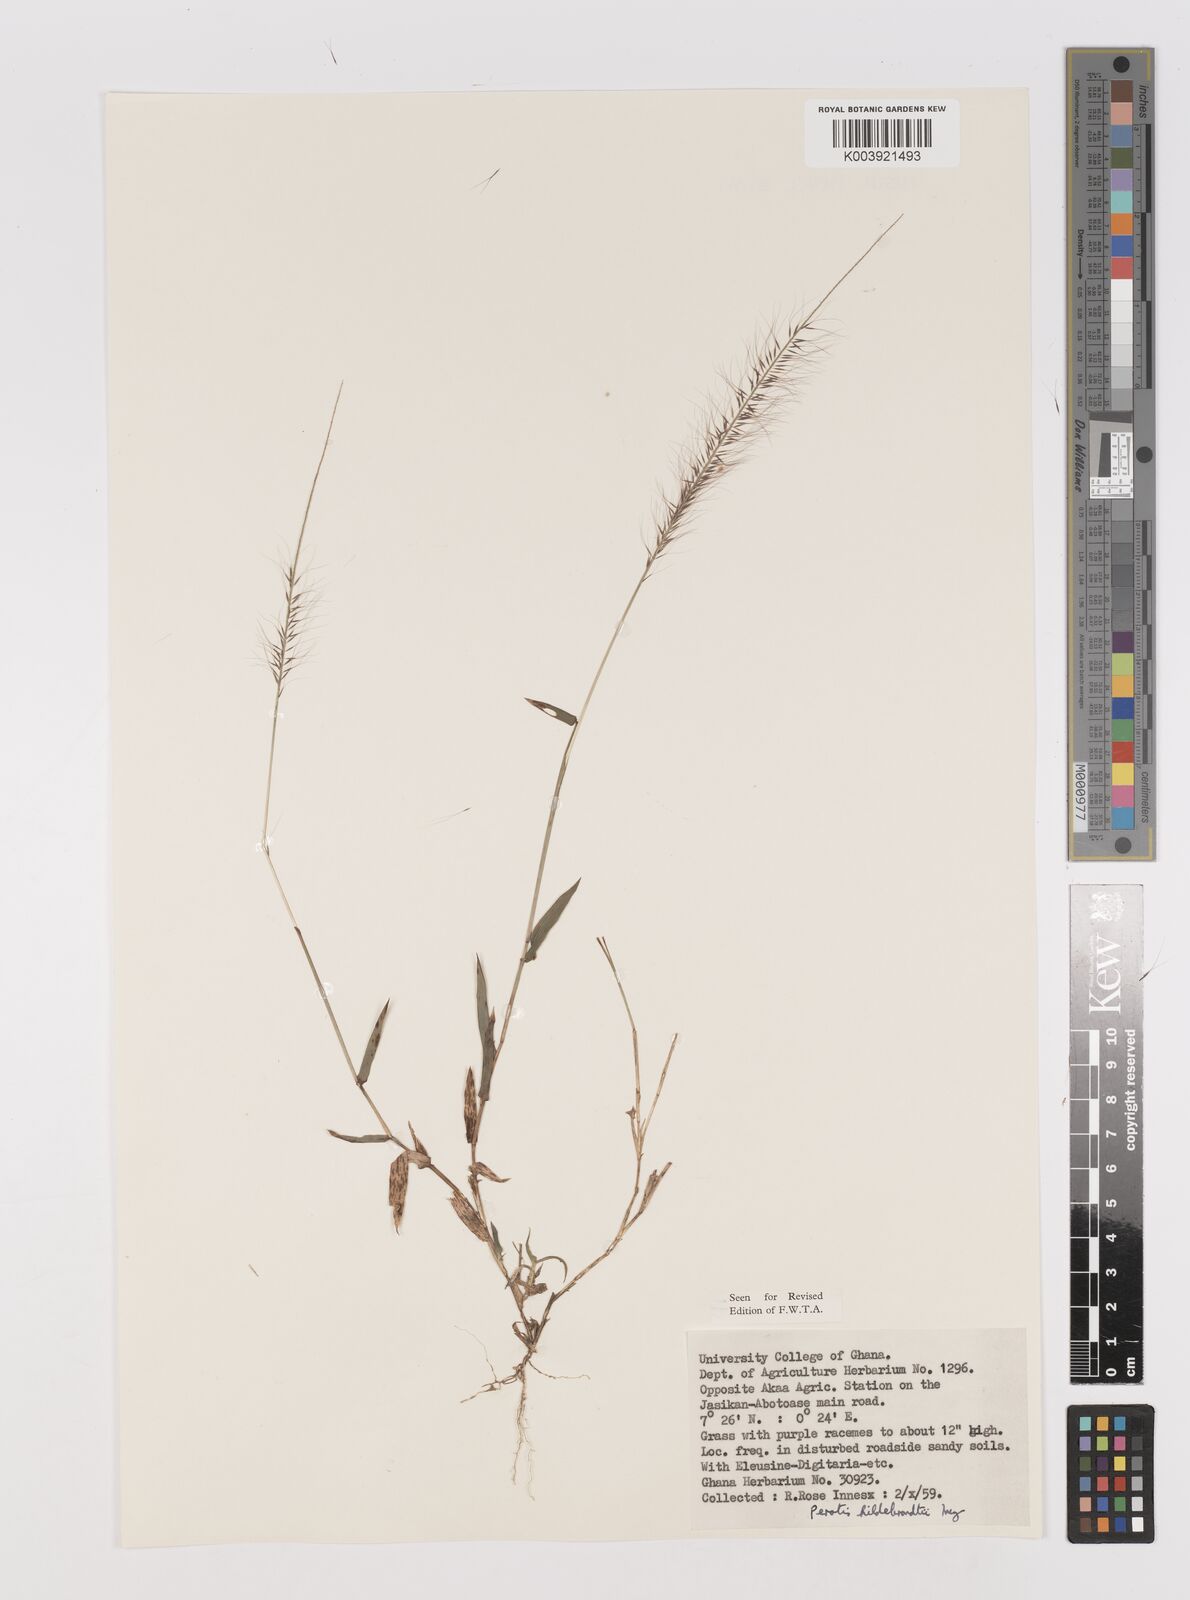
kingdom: Plantae
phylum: Tracheophyta
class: Liliopsida
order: Poales
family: Poaceae
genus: Perotis
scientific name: Perotis hildebrandtii
